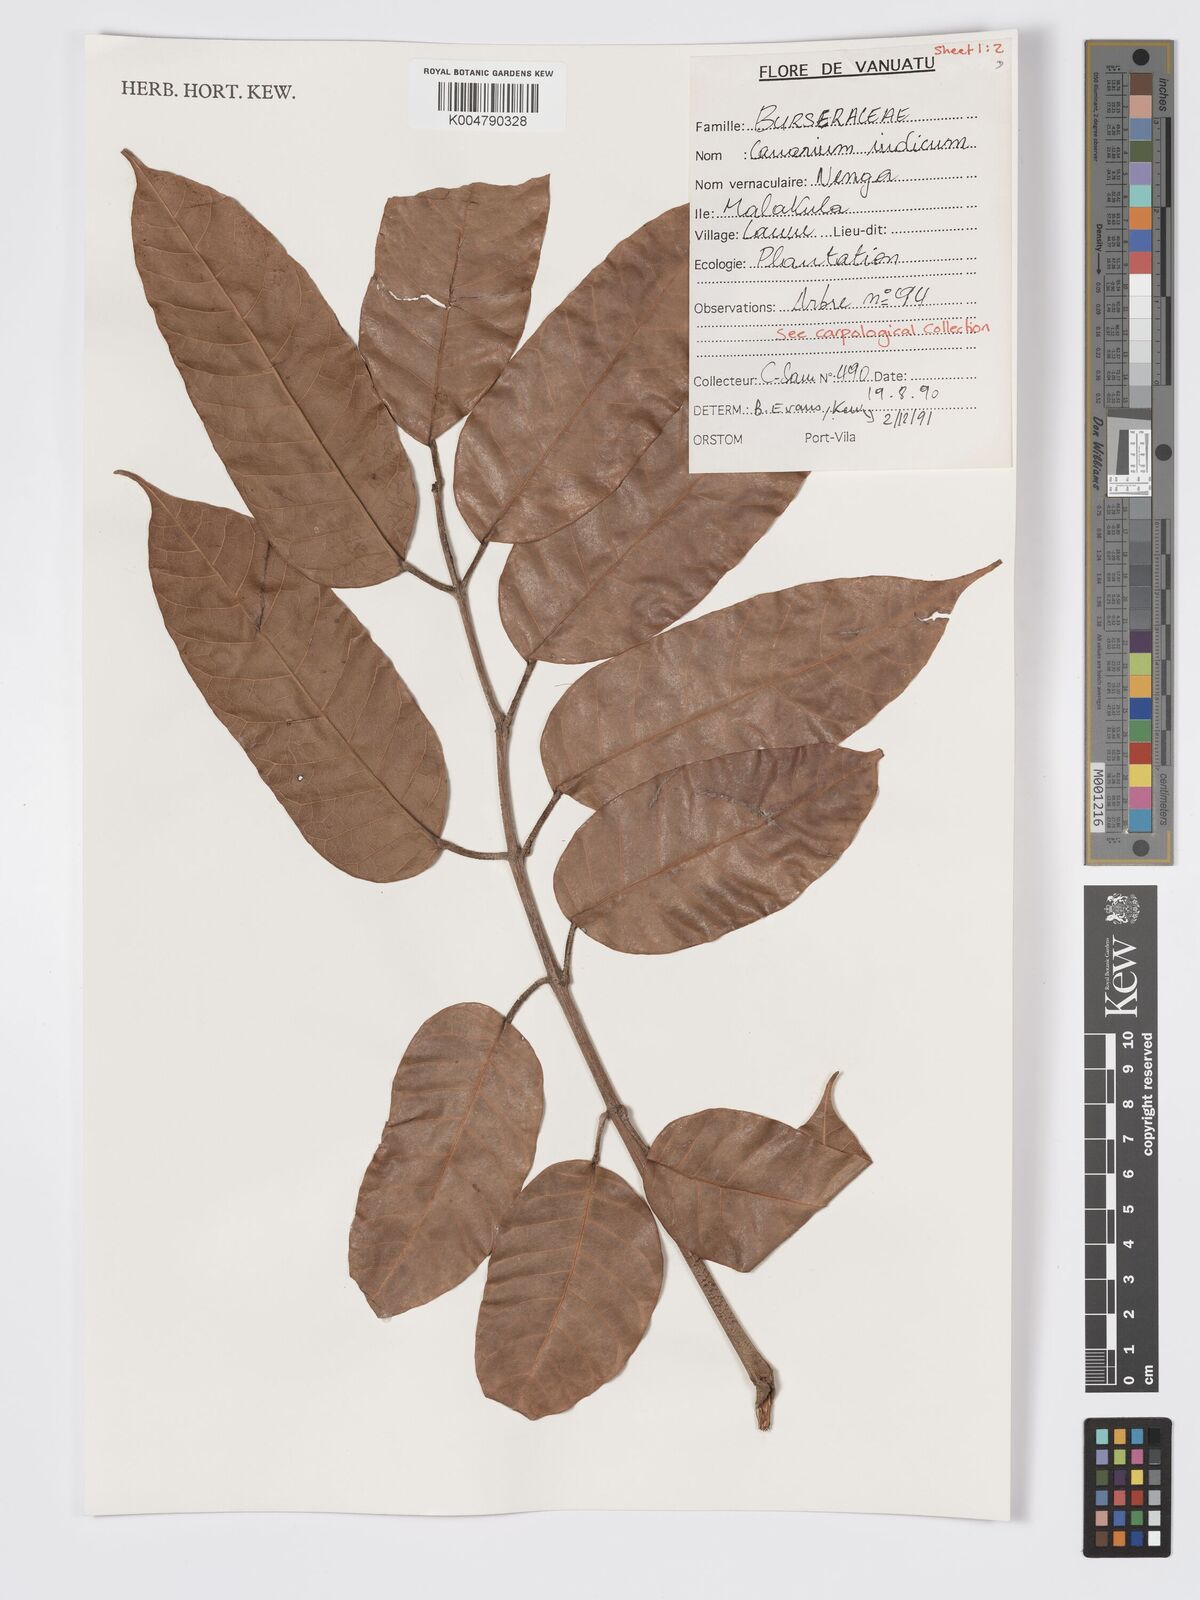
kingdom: Plantae
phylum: Tracheophyta
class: Magnoliopsida
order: Sapindales
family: Burseraceae
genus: Canarium
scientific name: Canarium indicum
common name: Canarium-nut
